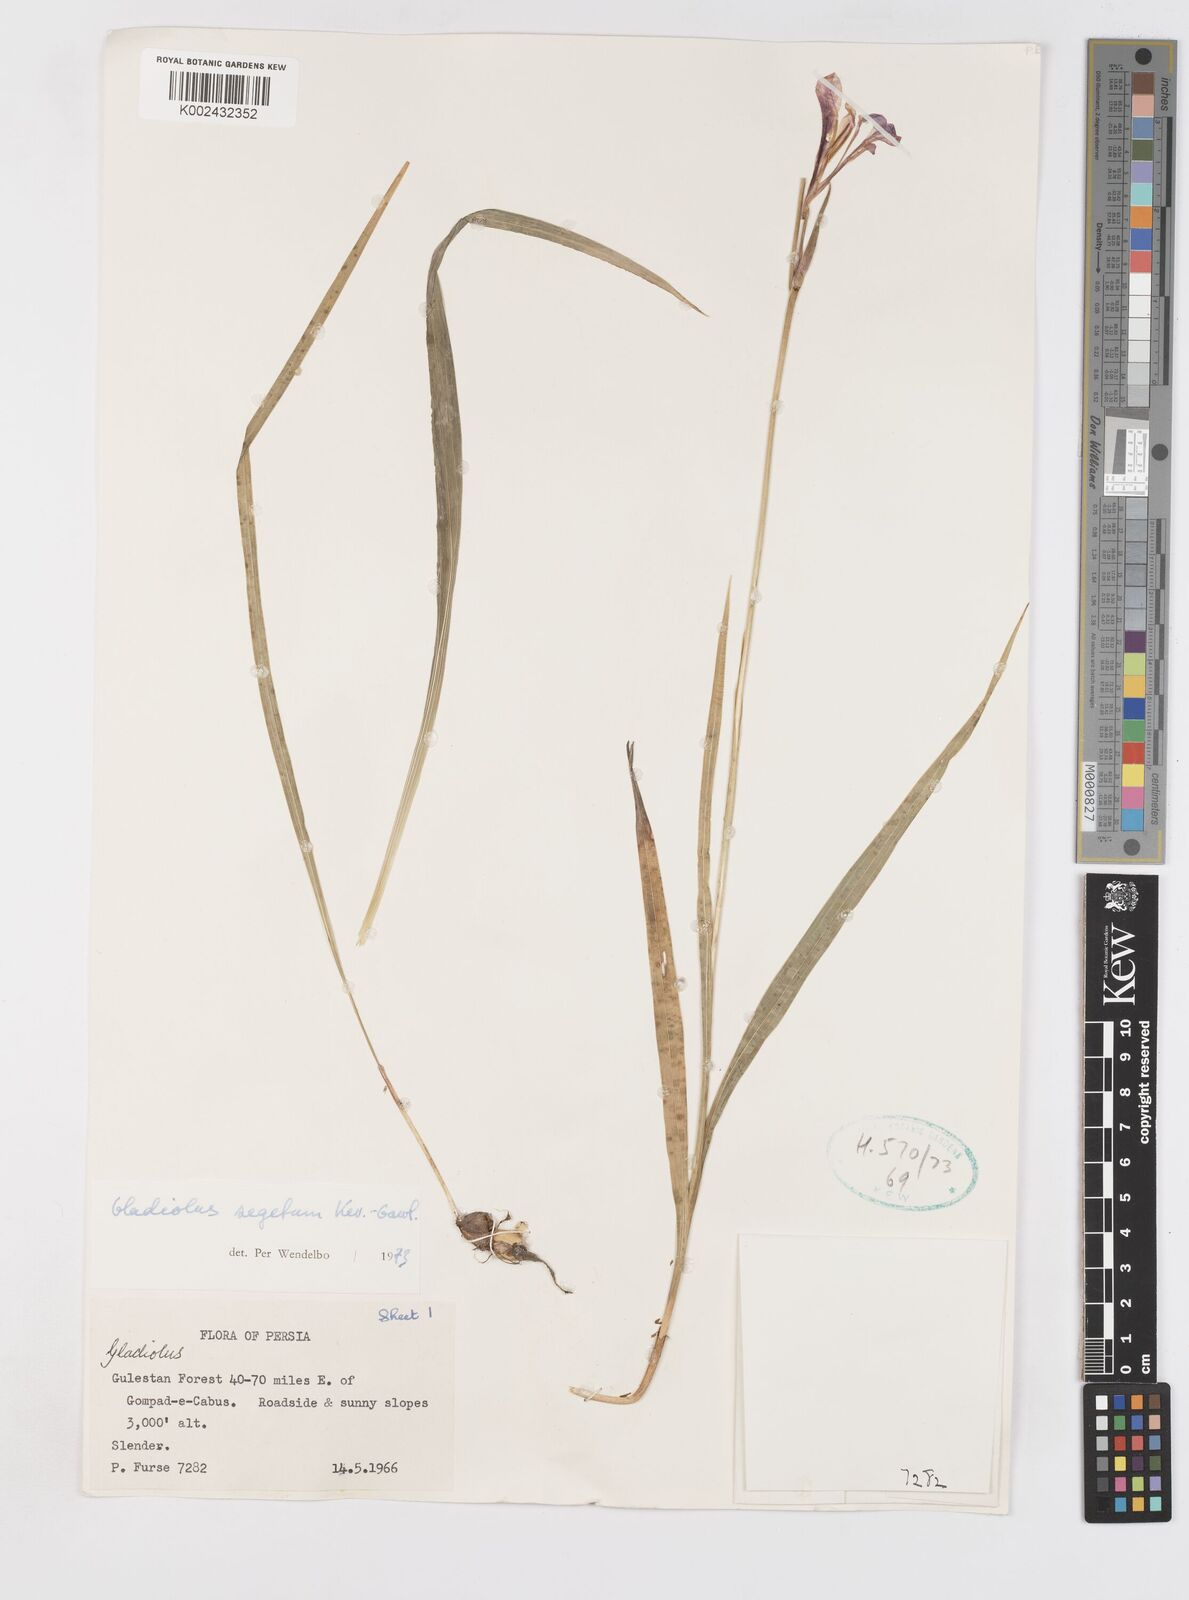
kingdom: Plantae
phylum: Tracheophyta
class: Liliopsida
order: Asparagales
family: Iridaceae
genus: Gladiolus
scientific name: Gladiolus italicus
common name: Field gladiolus
